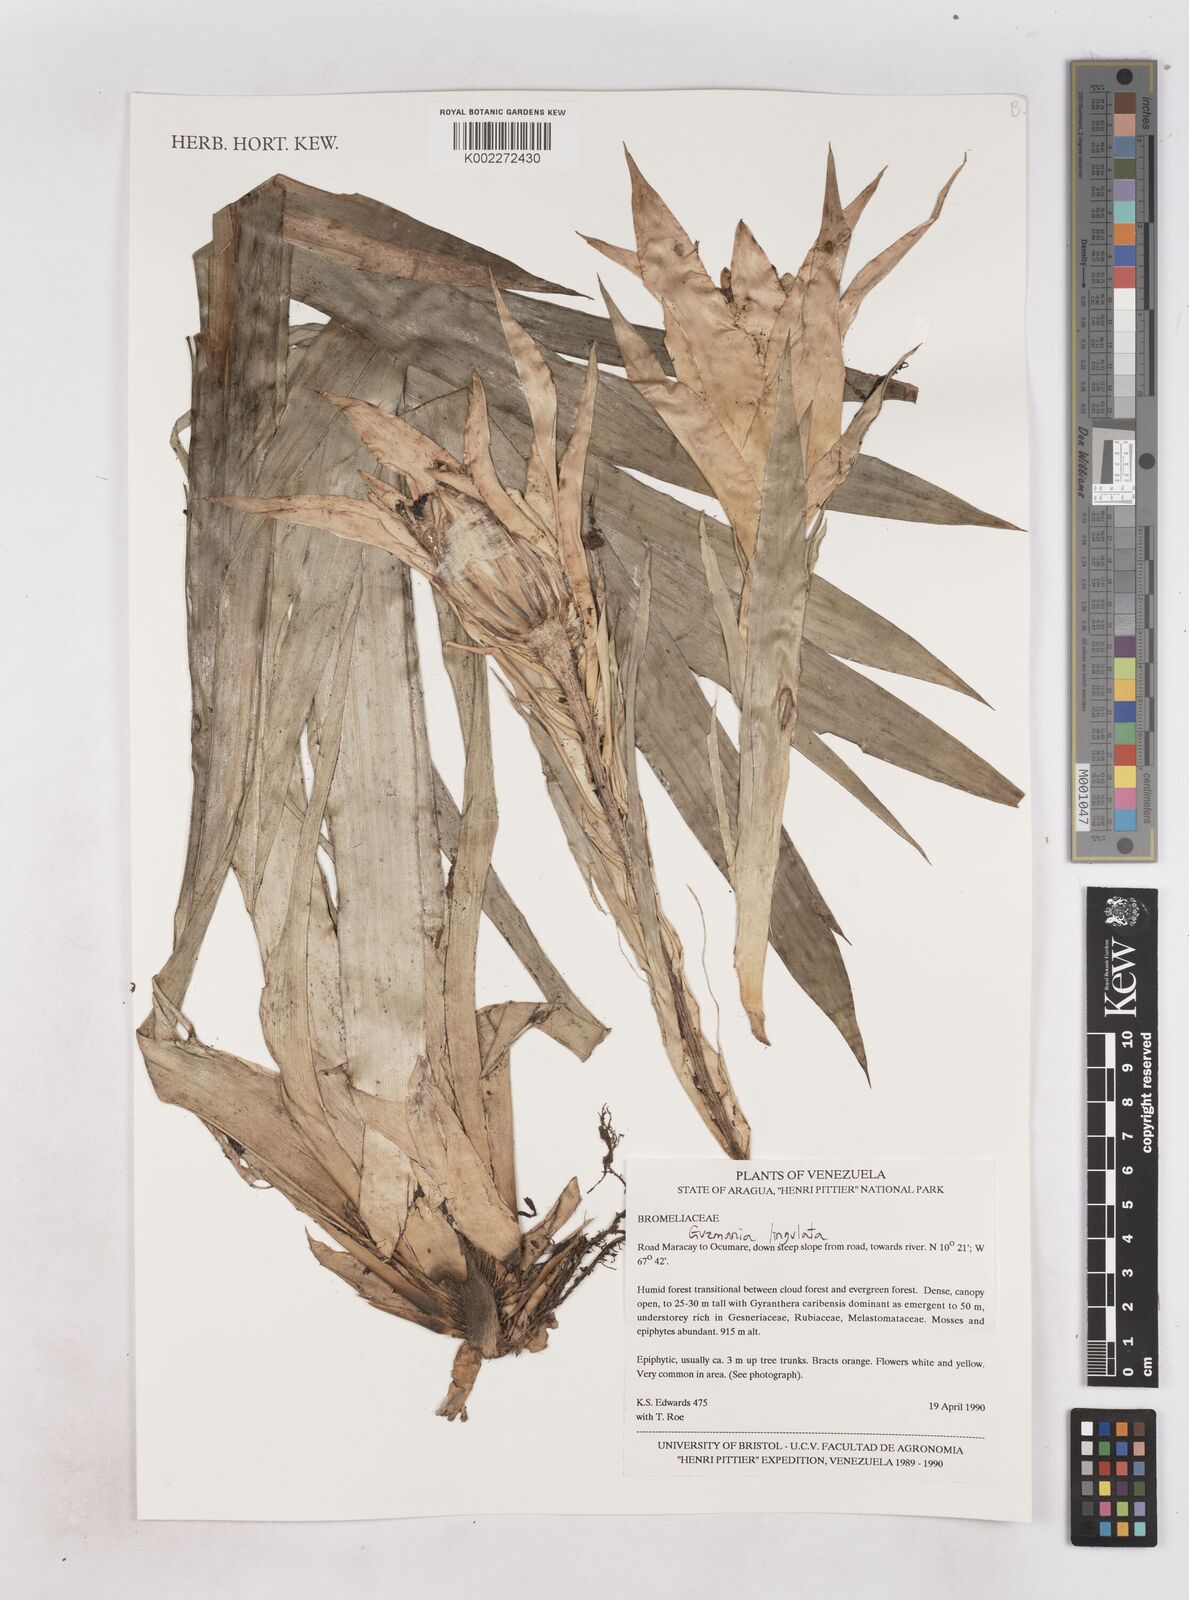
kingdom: Plantae
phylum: Tracheophyta
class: Liliopsida
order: Poales
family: Bromeliaceae
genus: Guzmania
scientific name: Guzmania lingulata
